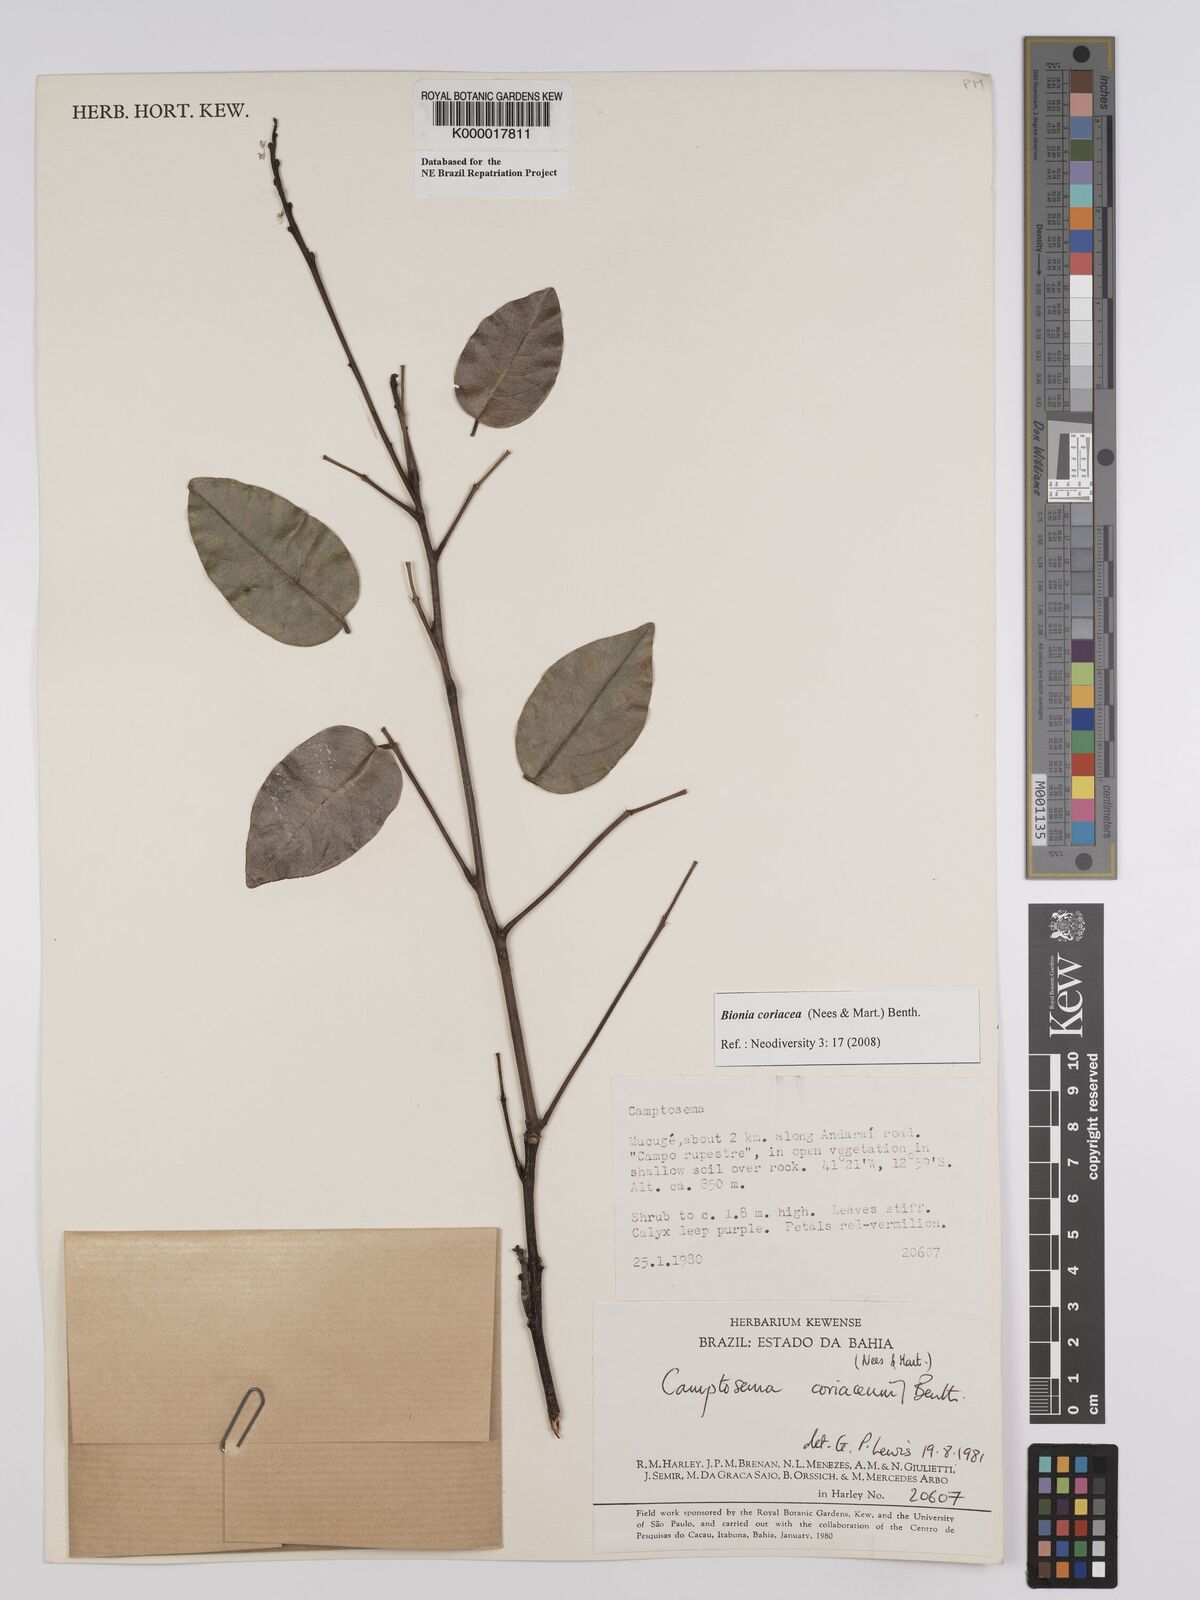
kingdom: Plantae
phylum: Tracheophyta
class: Magnoliopsida
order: Fabales
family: Fabaceae
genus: Camptosema
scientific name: Camptosema coriaceum
